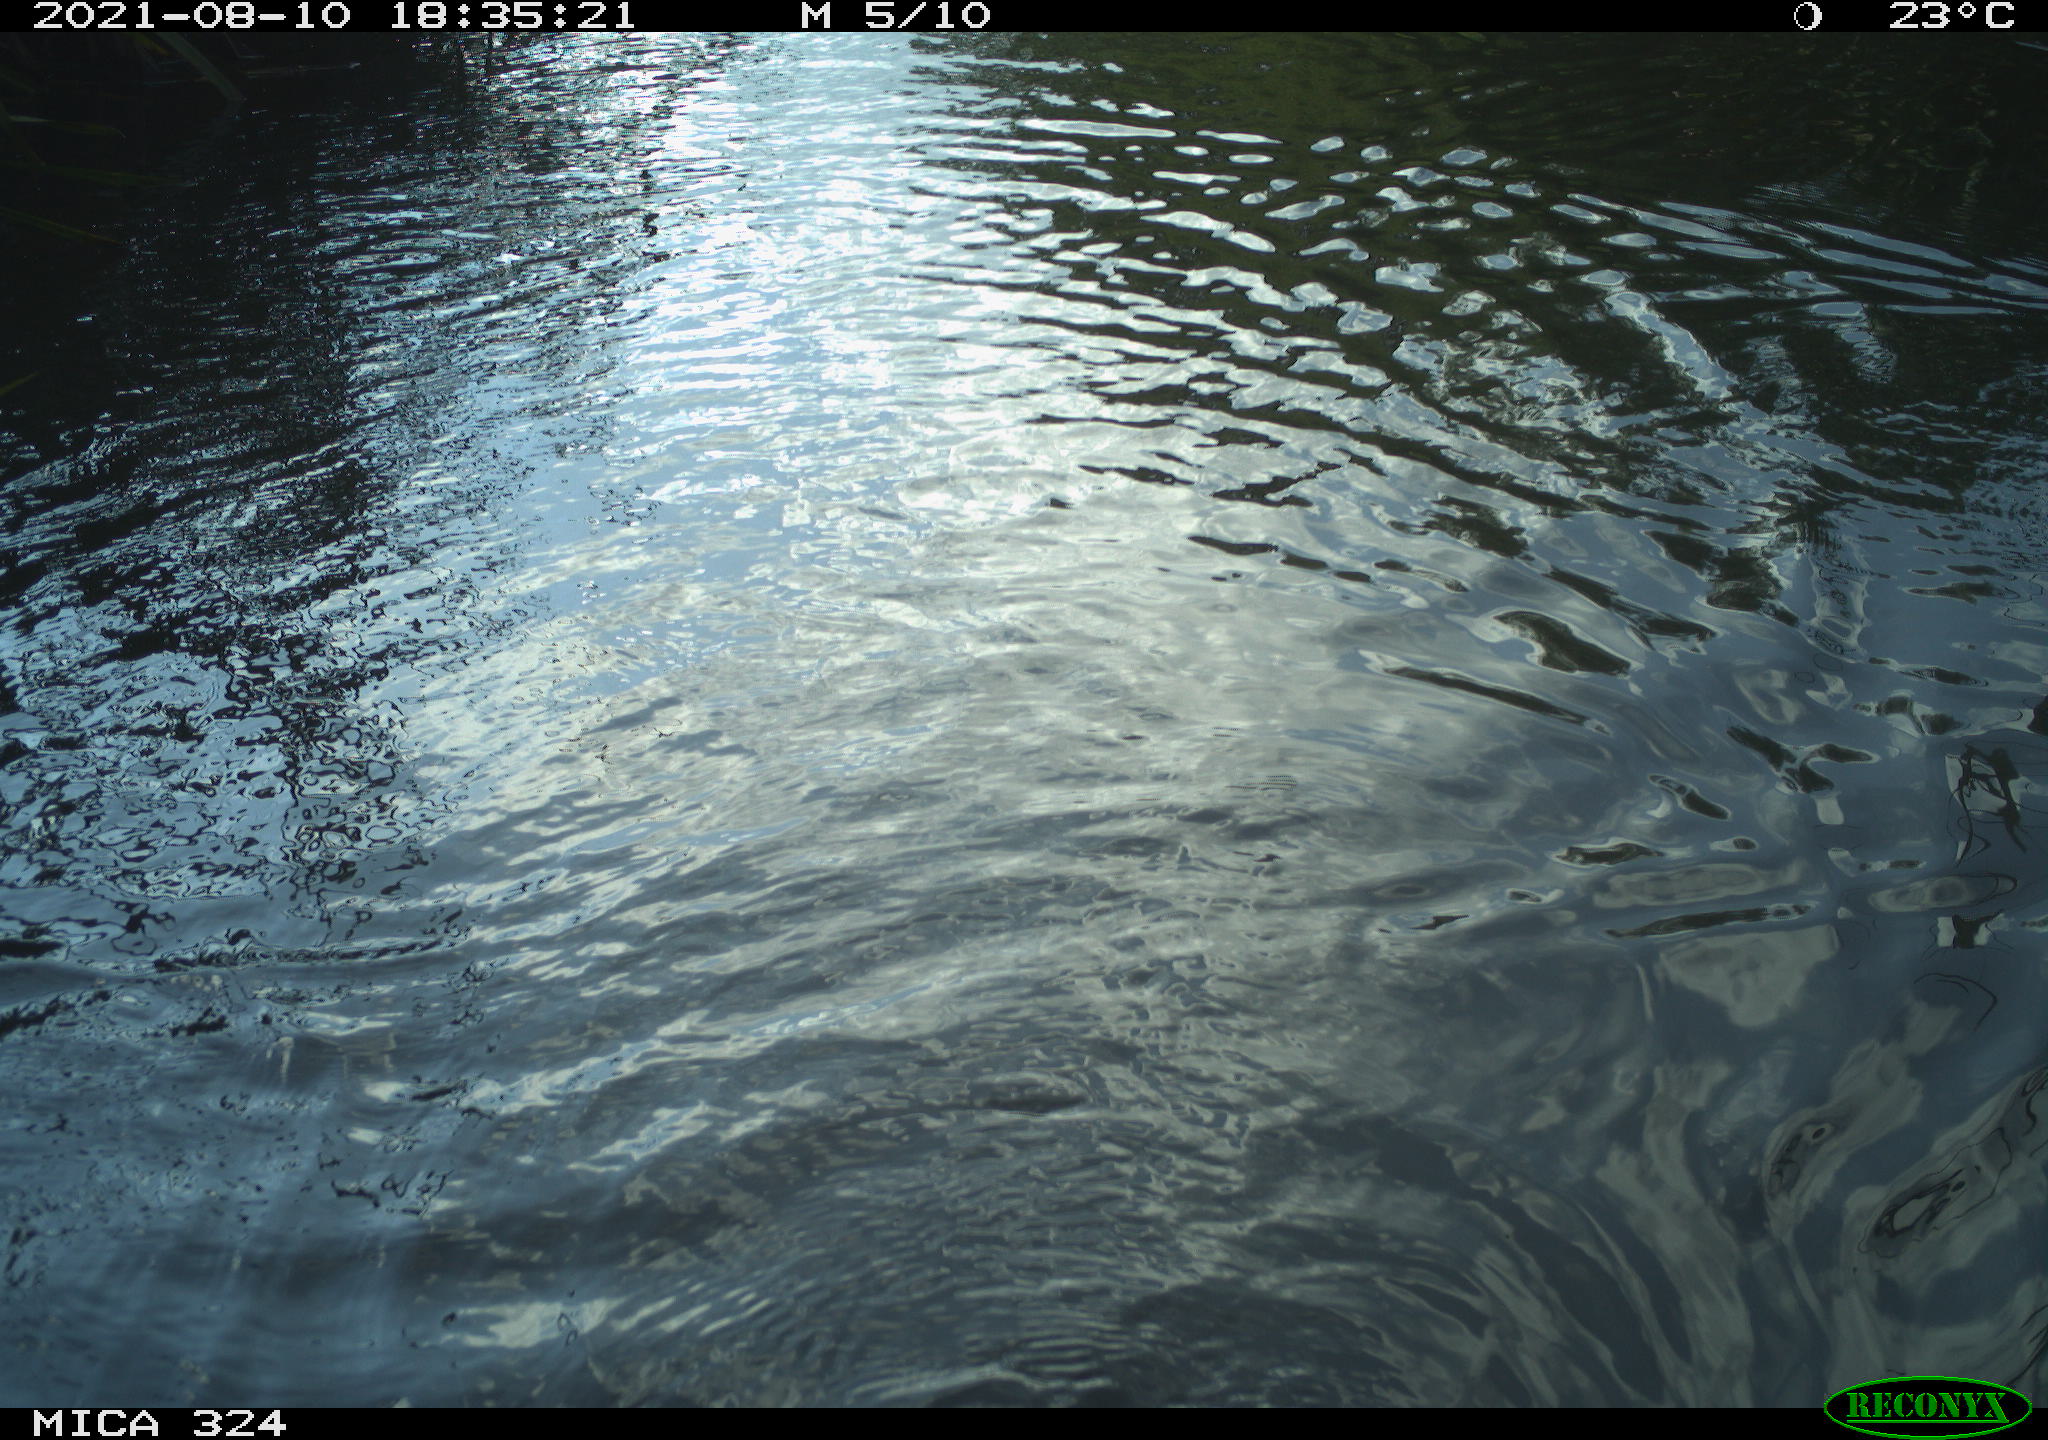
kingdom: Animalia
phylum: Chordata
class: Mammalia
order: Rodentia
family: Cricetidae
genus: Ondatra
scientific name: Ondatra zibethicus
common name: Muskrat
